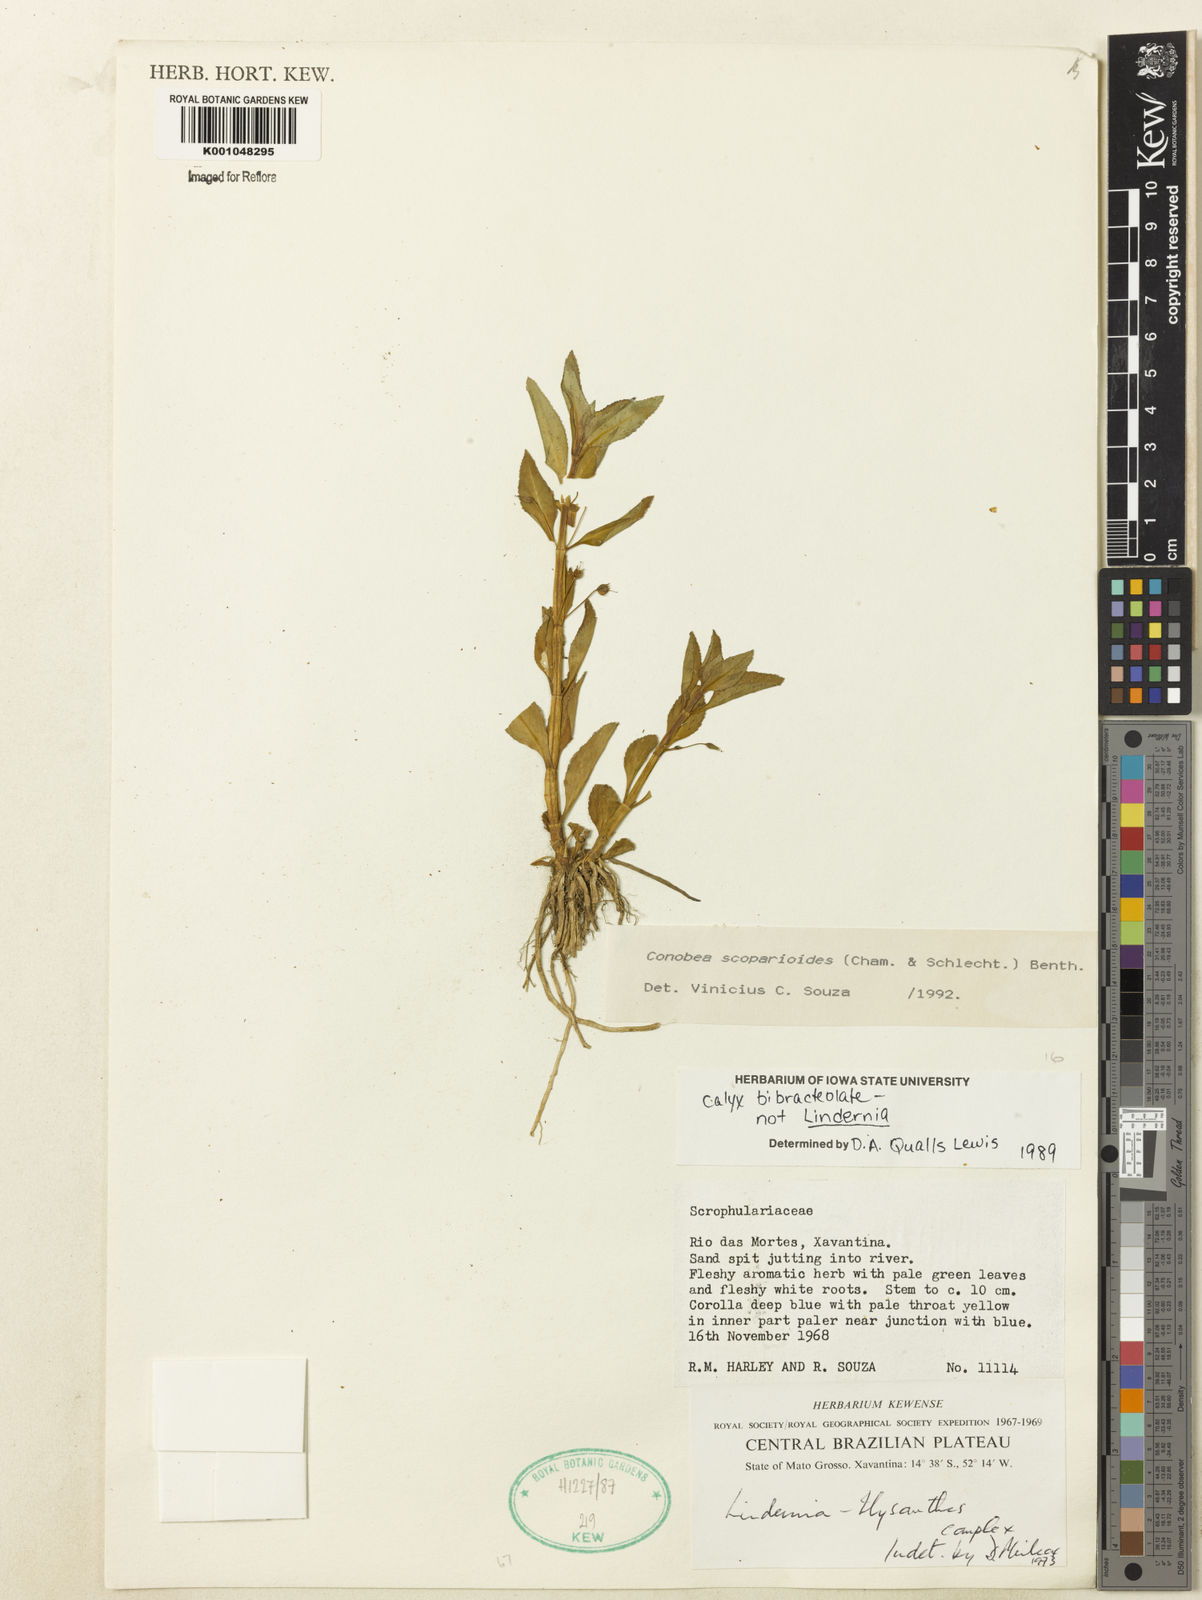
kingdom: Plantae
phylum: Tracheophyta
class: Magnoliopsida
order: Lamiales
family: Plantaginaceae
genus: Conobea
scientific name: Conobea scoparioides
